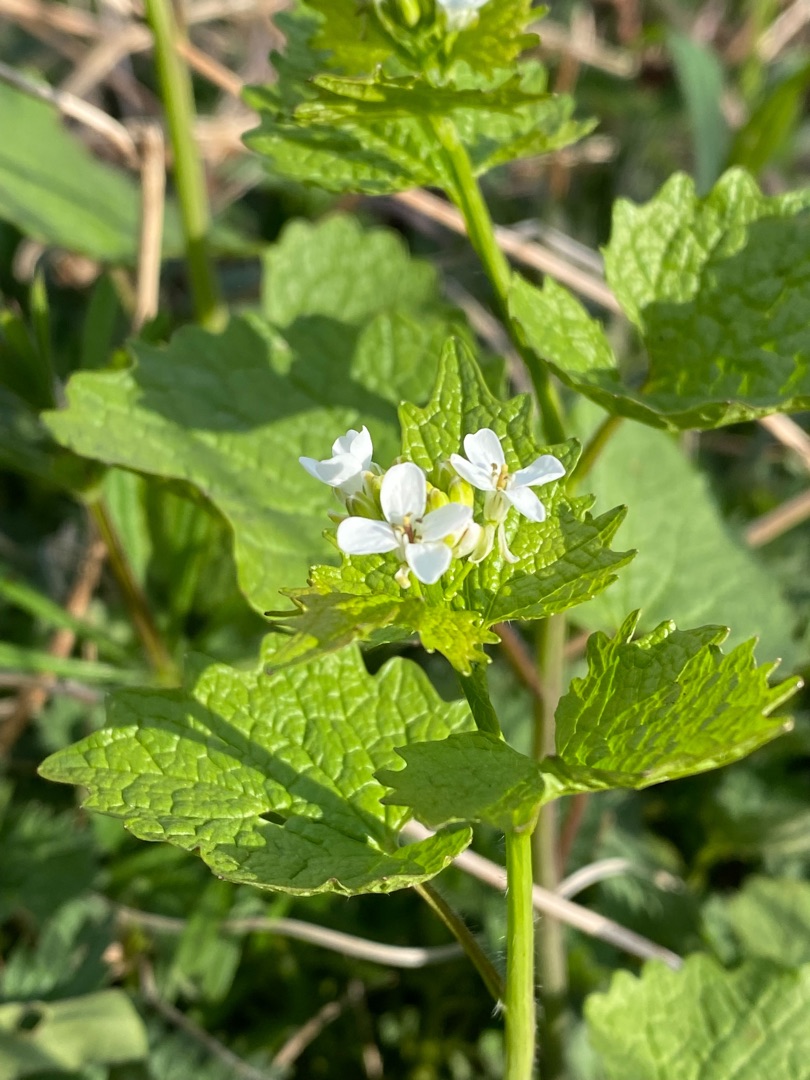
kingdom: Plantae
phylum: Tracheophyta
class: Magnoliopsida
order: Brassicales
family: Brassicaceae
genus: Alliaria
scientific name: Alliaria petiolata
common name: Løgkarse
